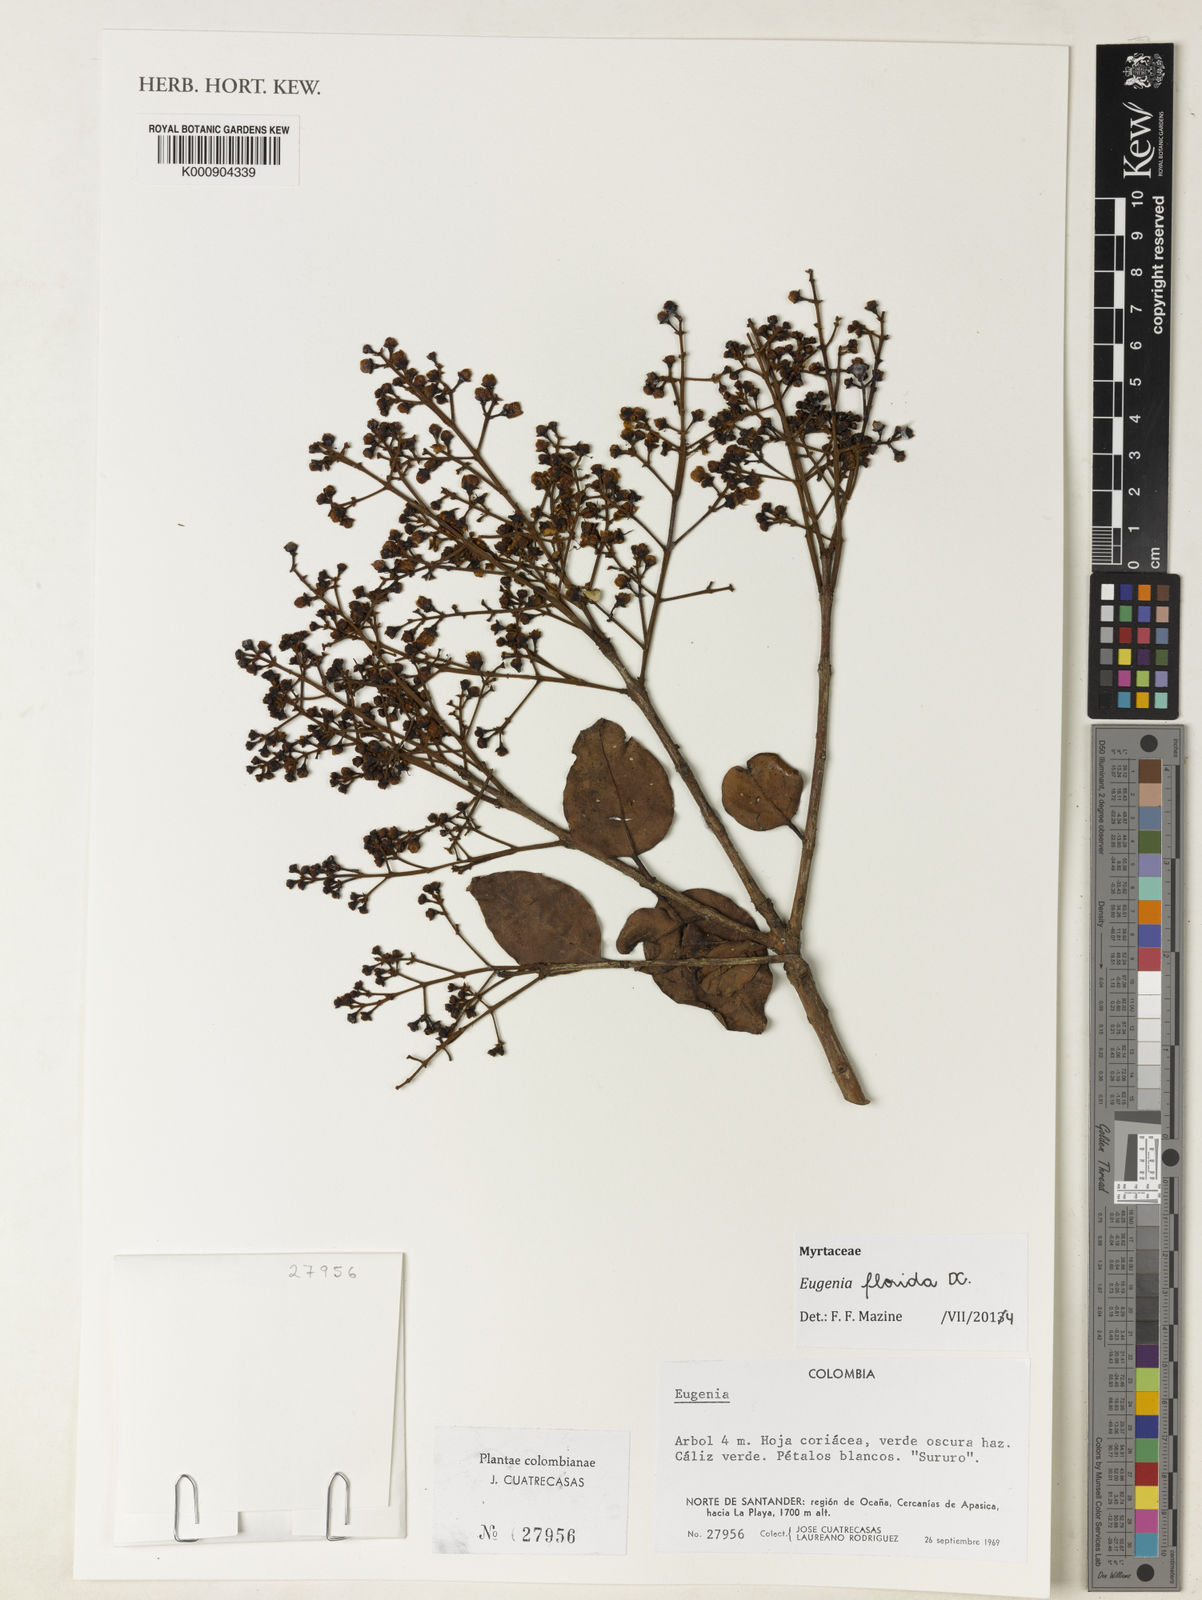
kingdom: Plantae
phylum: Tracheophyta
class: Magnoliopsida
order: Myrtales
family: Myrtaceae
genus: Eugenia
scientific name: Eugenia florida
